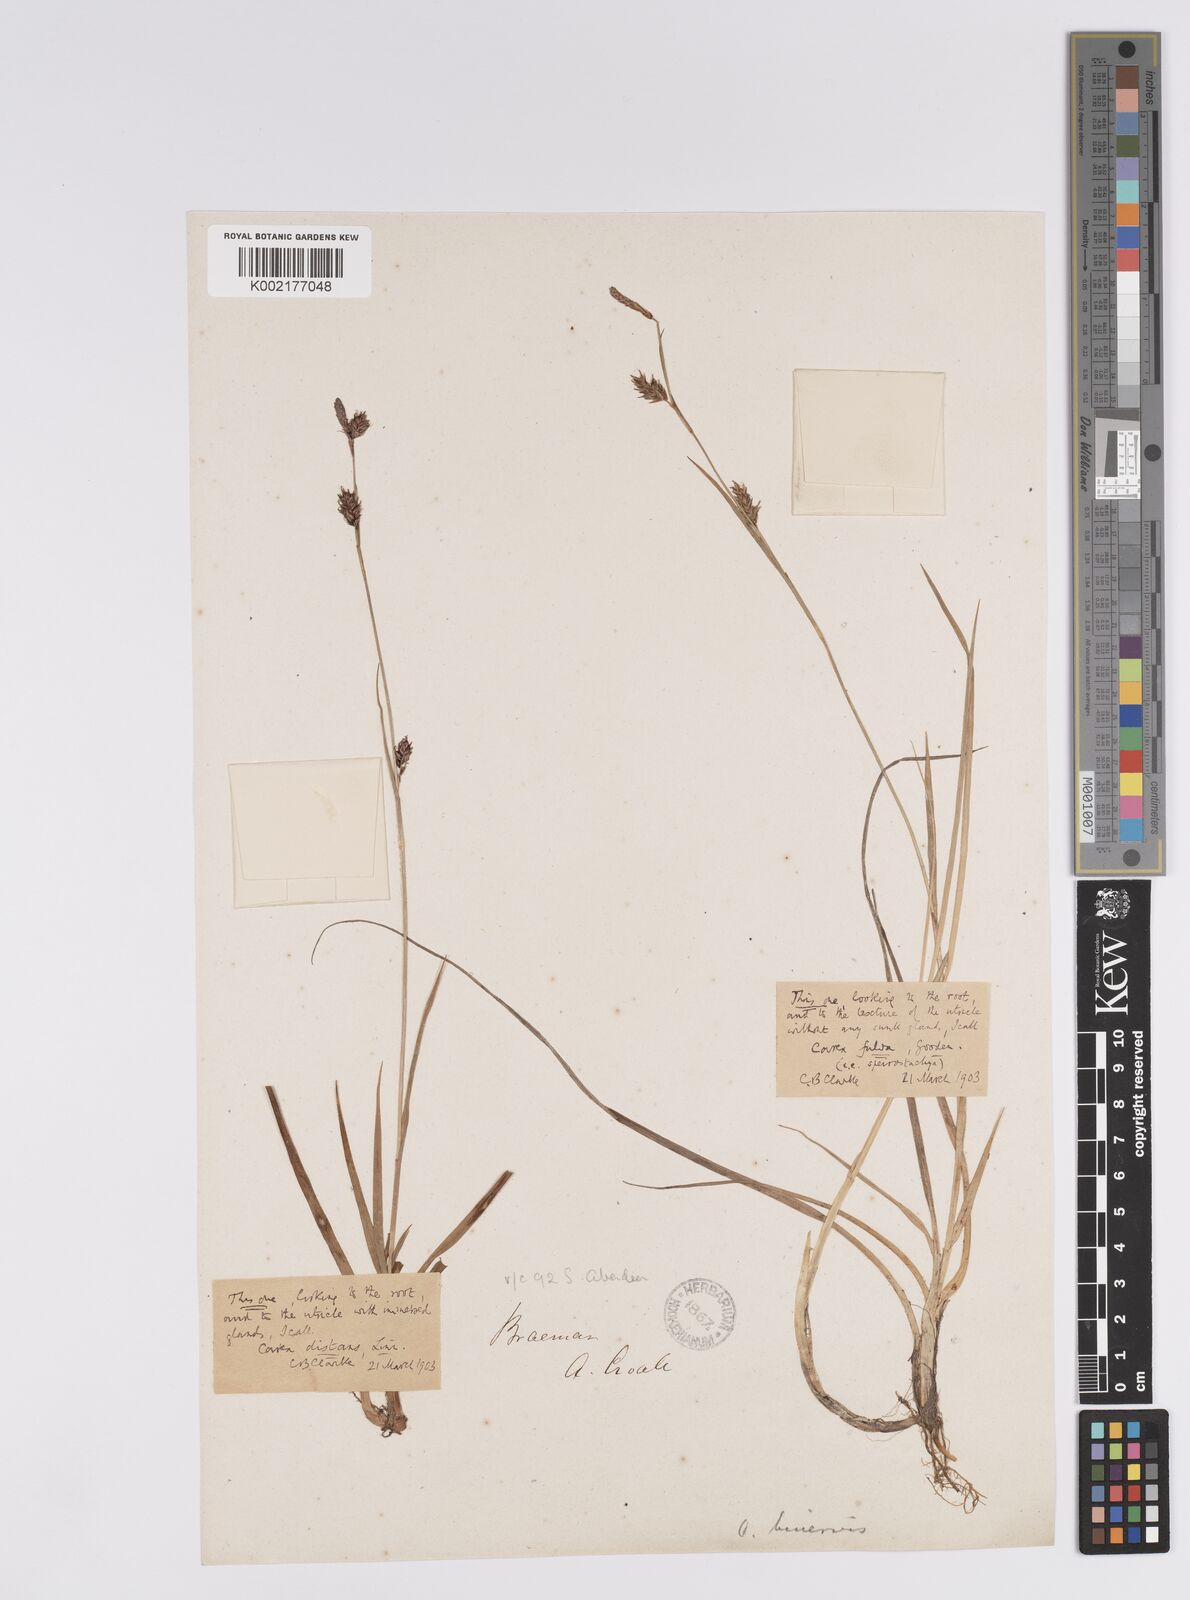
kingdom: Plantae
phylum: Tracheophyta
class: Liliopsida
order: Poales
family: Cyperaceae
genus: Carex
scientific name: Carex hostiana
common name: Tawny sedge
